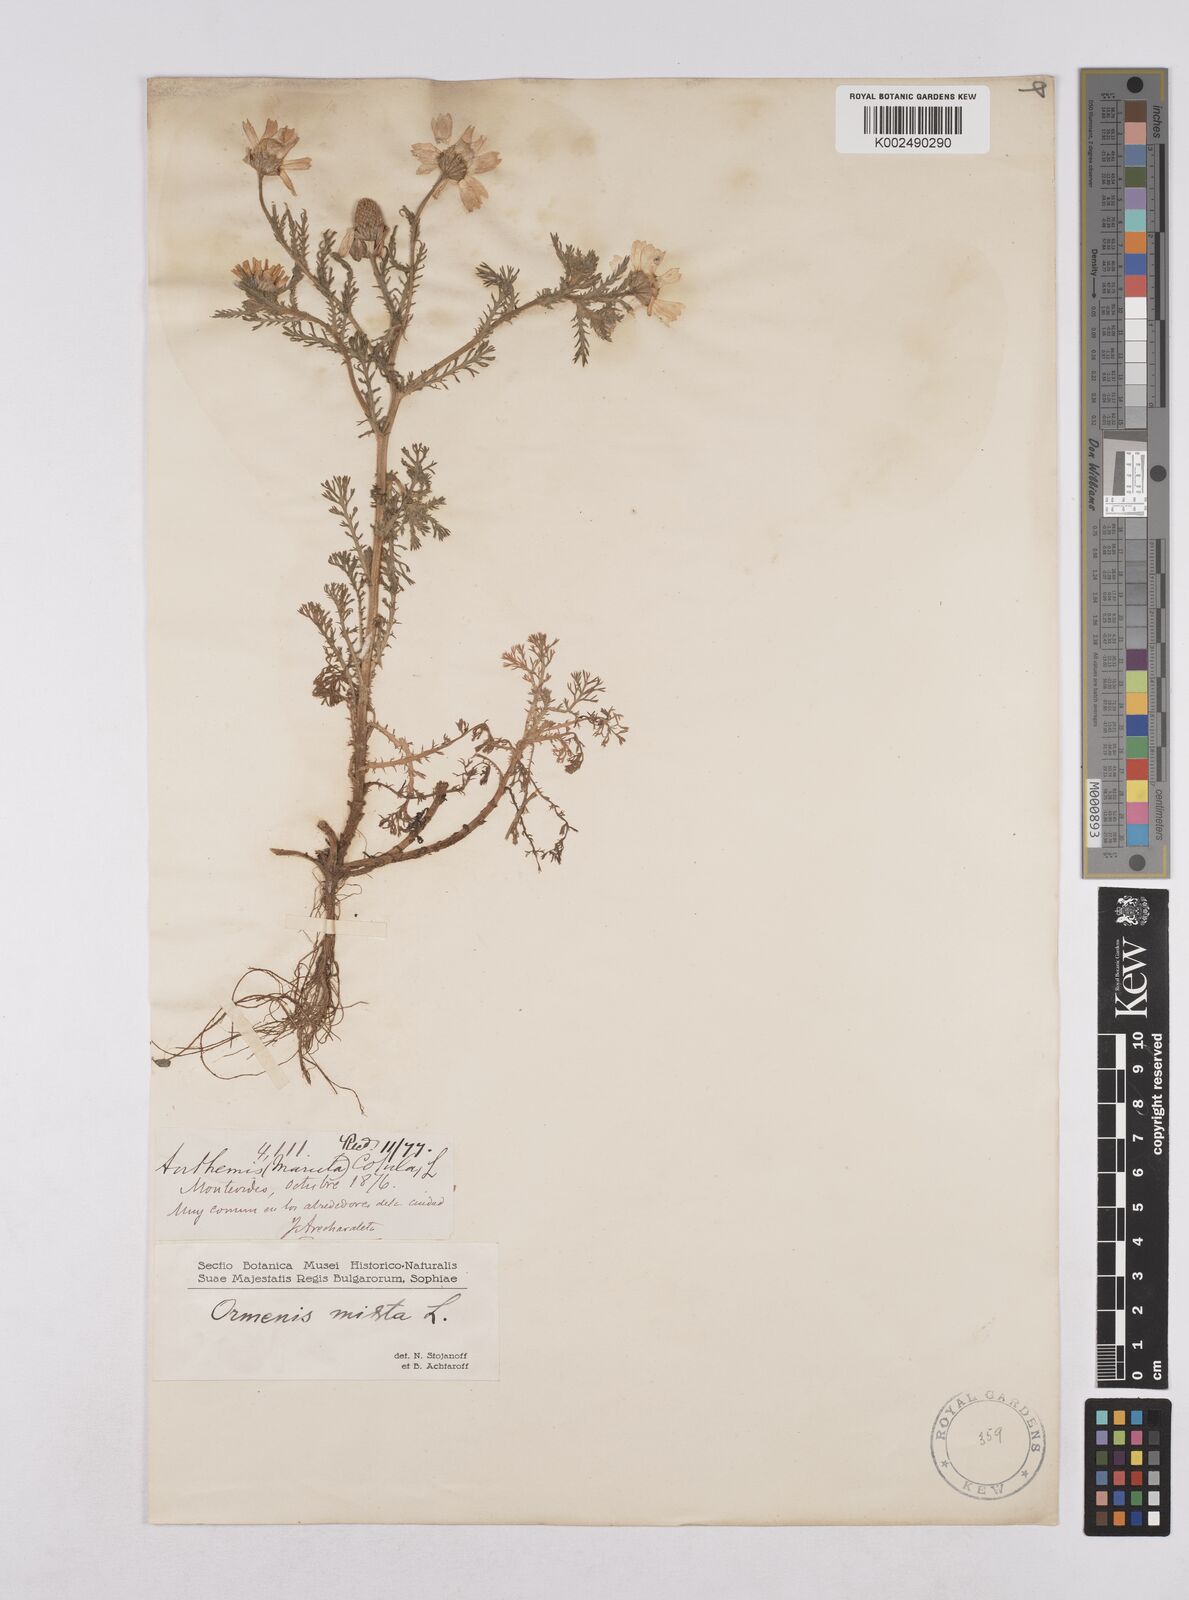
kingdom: Plantae
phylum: Tracheophyta
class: Magnoliopsida
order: Asterales
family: Asteraceae
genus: Cladanthus
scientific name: Cladanthus mixtus
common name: Weedy dogfennel
